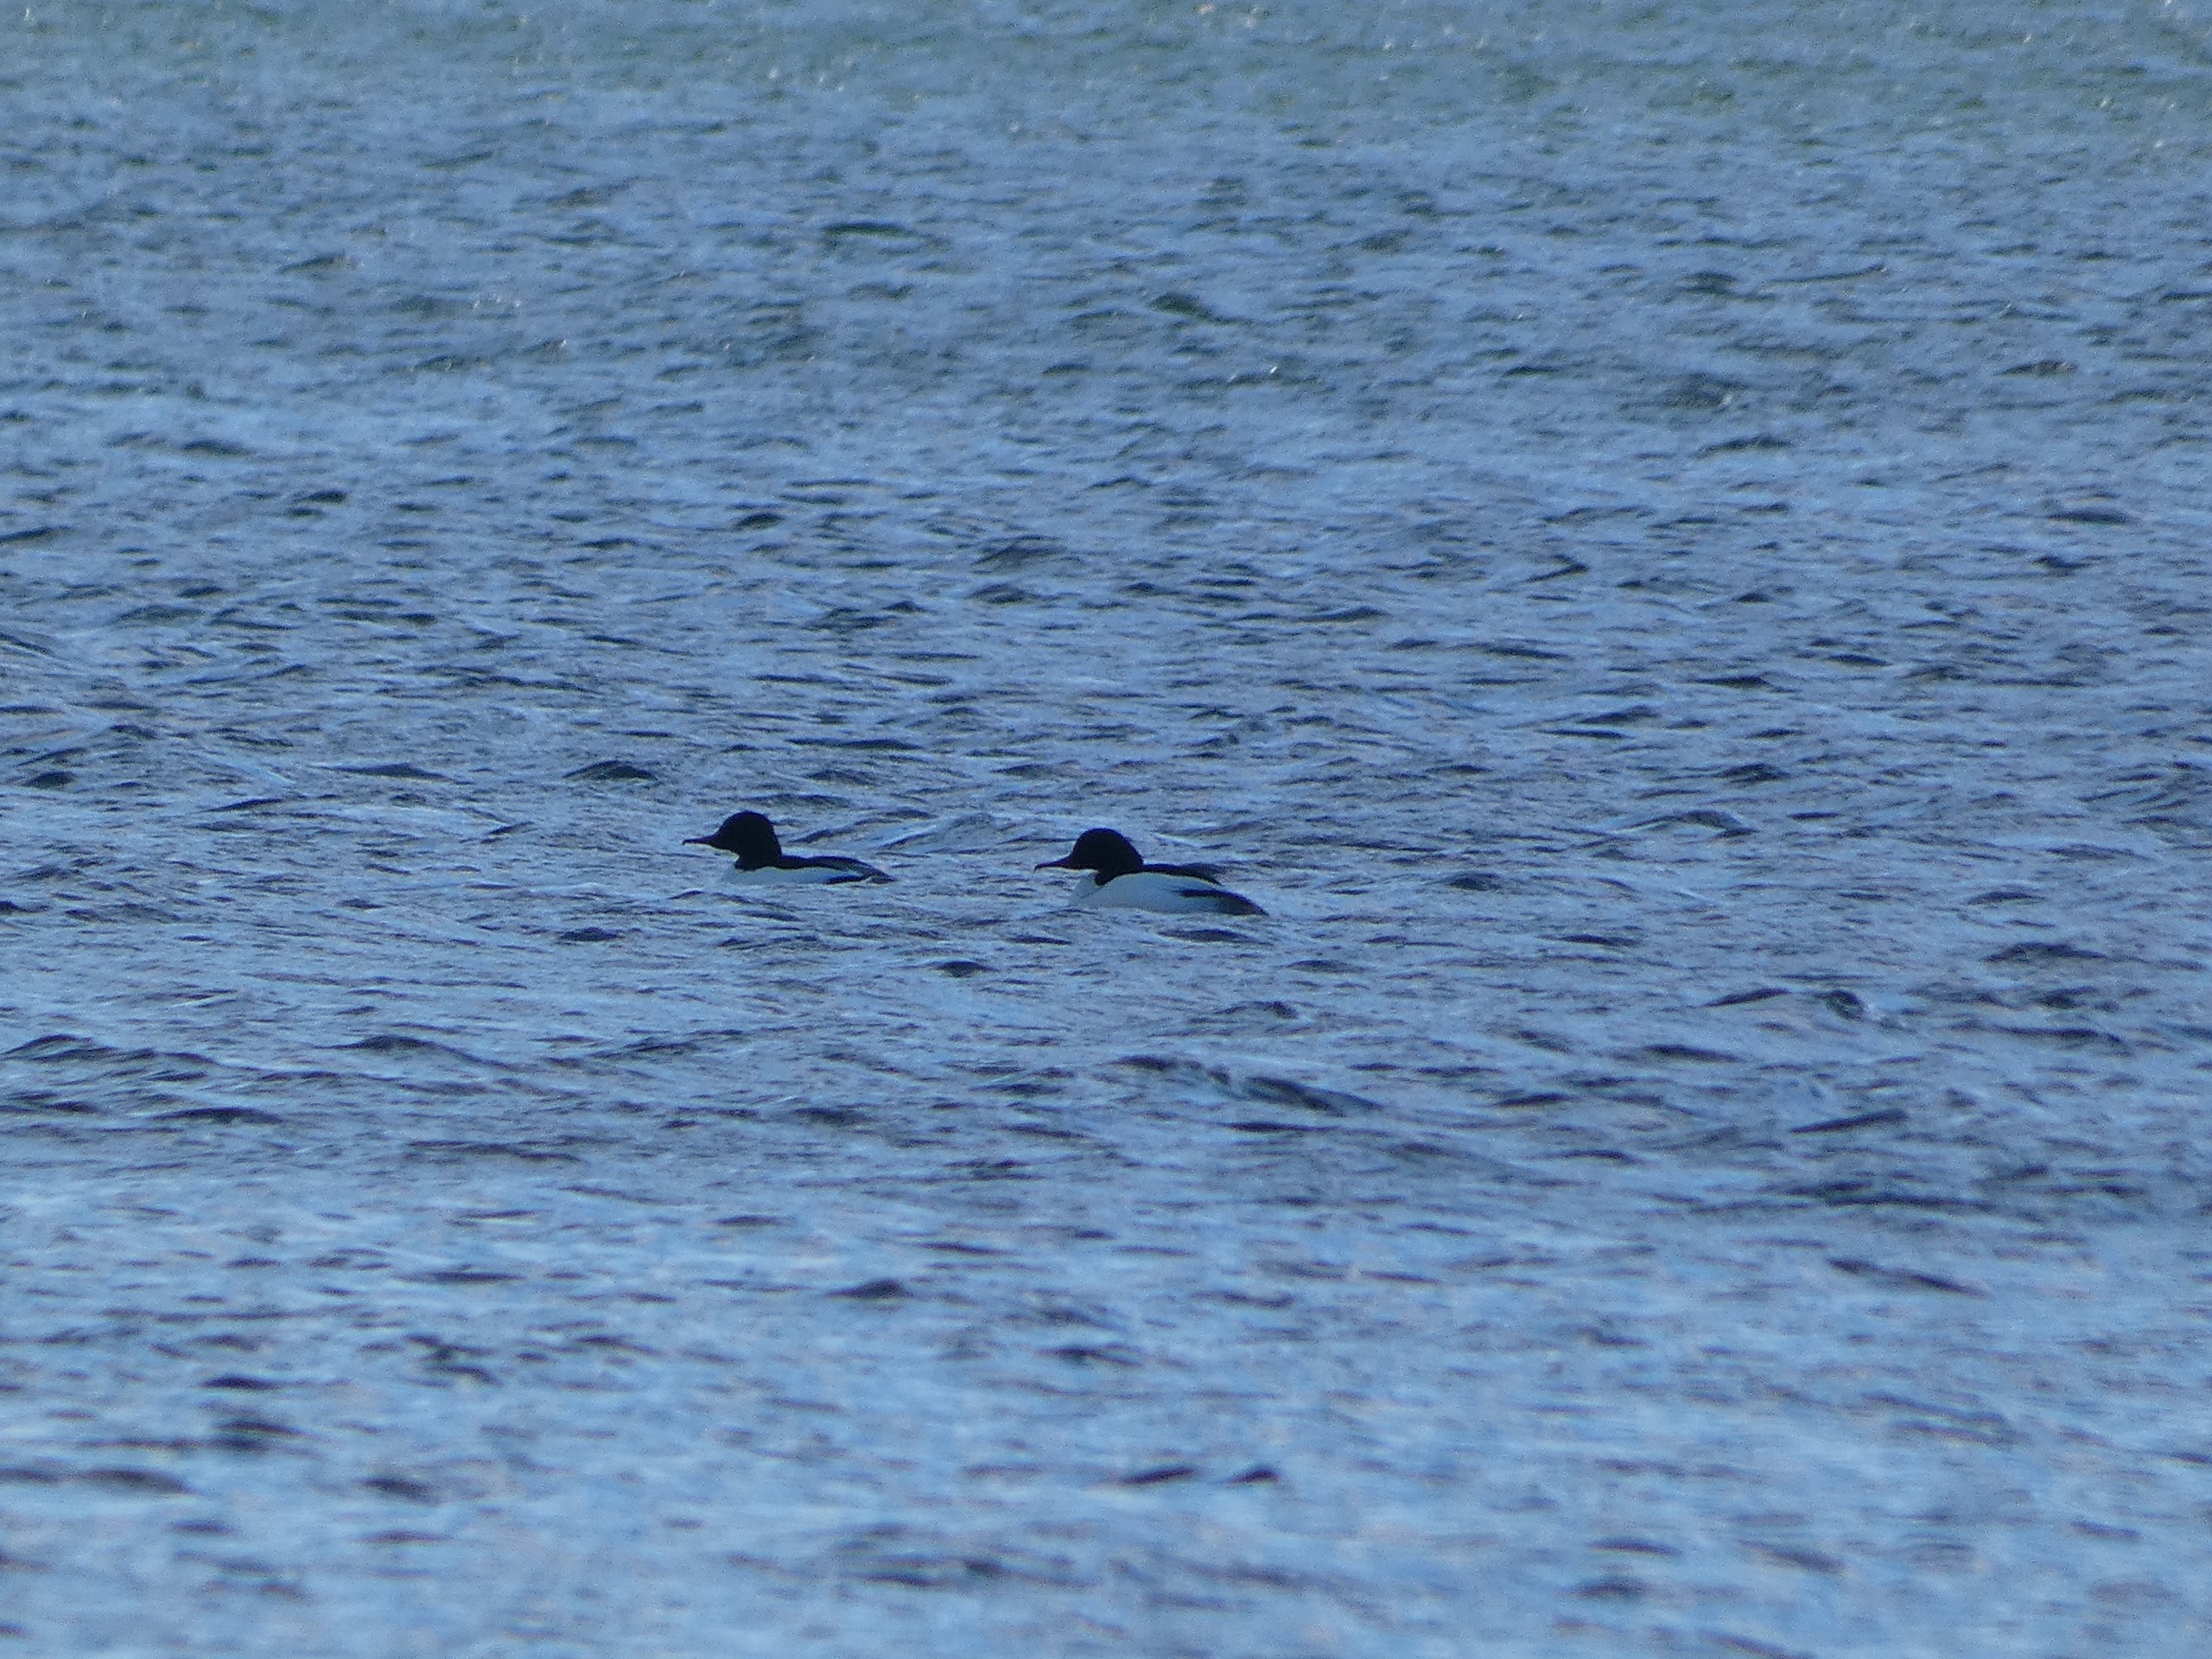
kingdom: Animalia
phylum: Chordata
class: Aves
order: Anseriformes
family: Anatidae
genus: Mergus
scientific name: Mergus merganser
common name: Stor skallesluger
